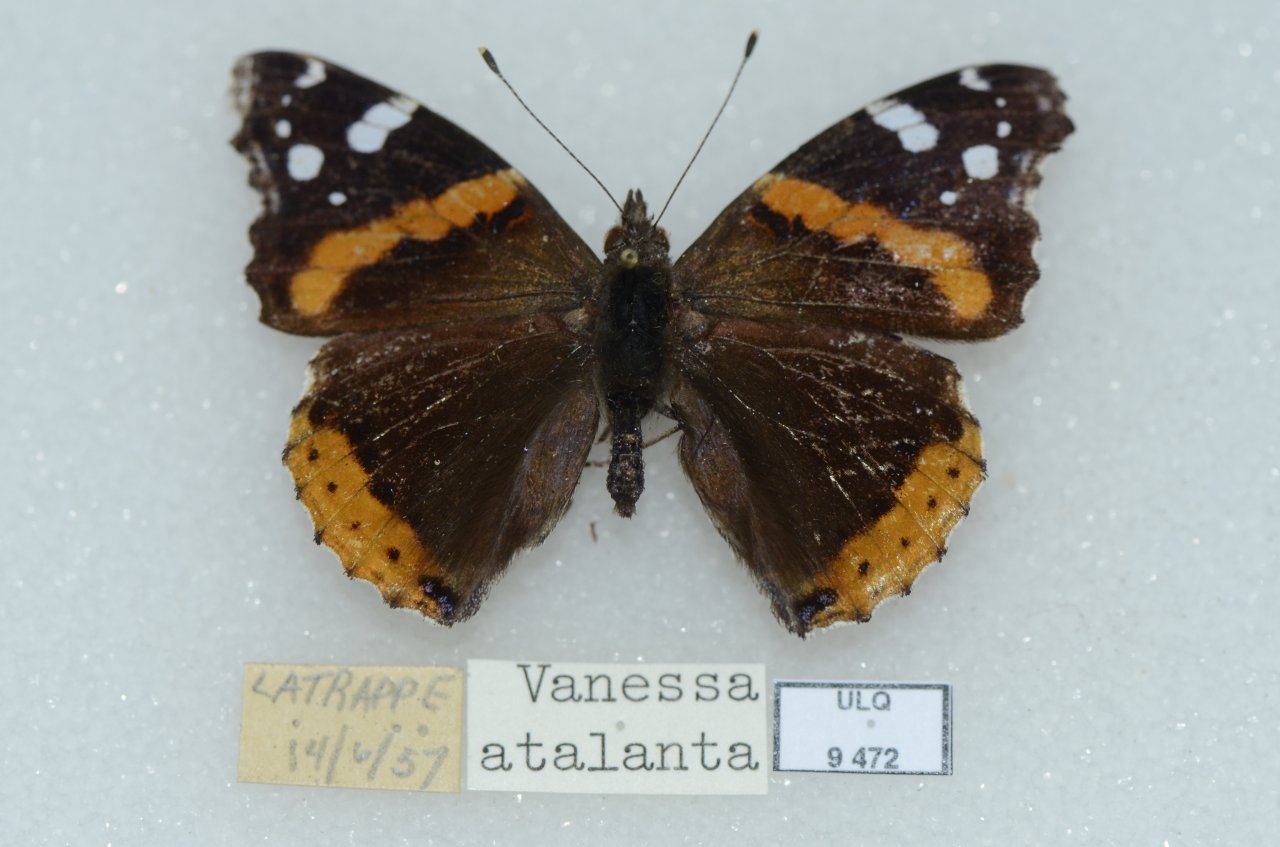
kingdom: Animalia
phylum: Arthropoda
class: Insecta
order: Lepidoptera
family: Nymphalidae
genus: Vanessa
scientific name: Vanessa atalanta
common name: Red Admiral
